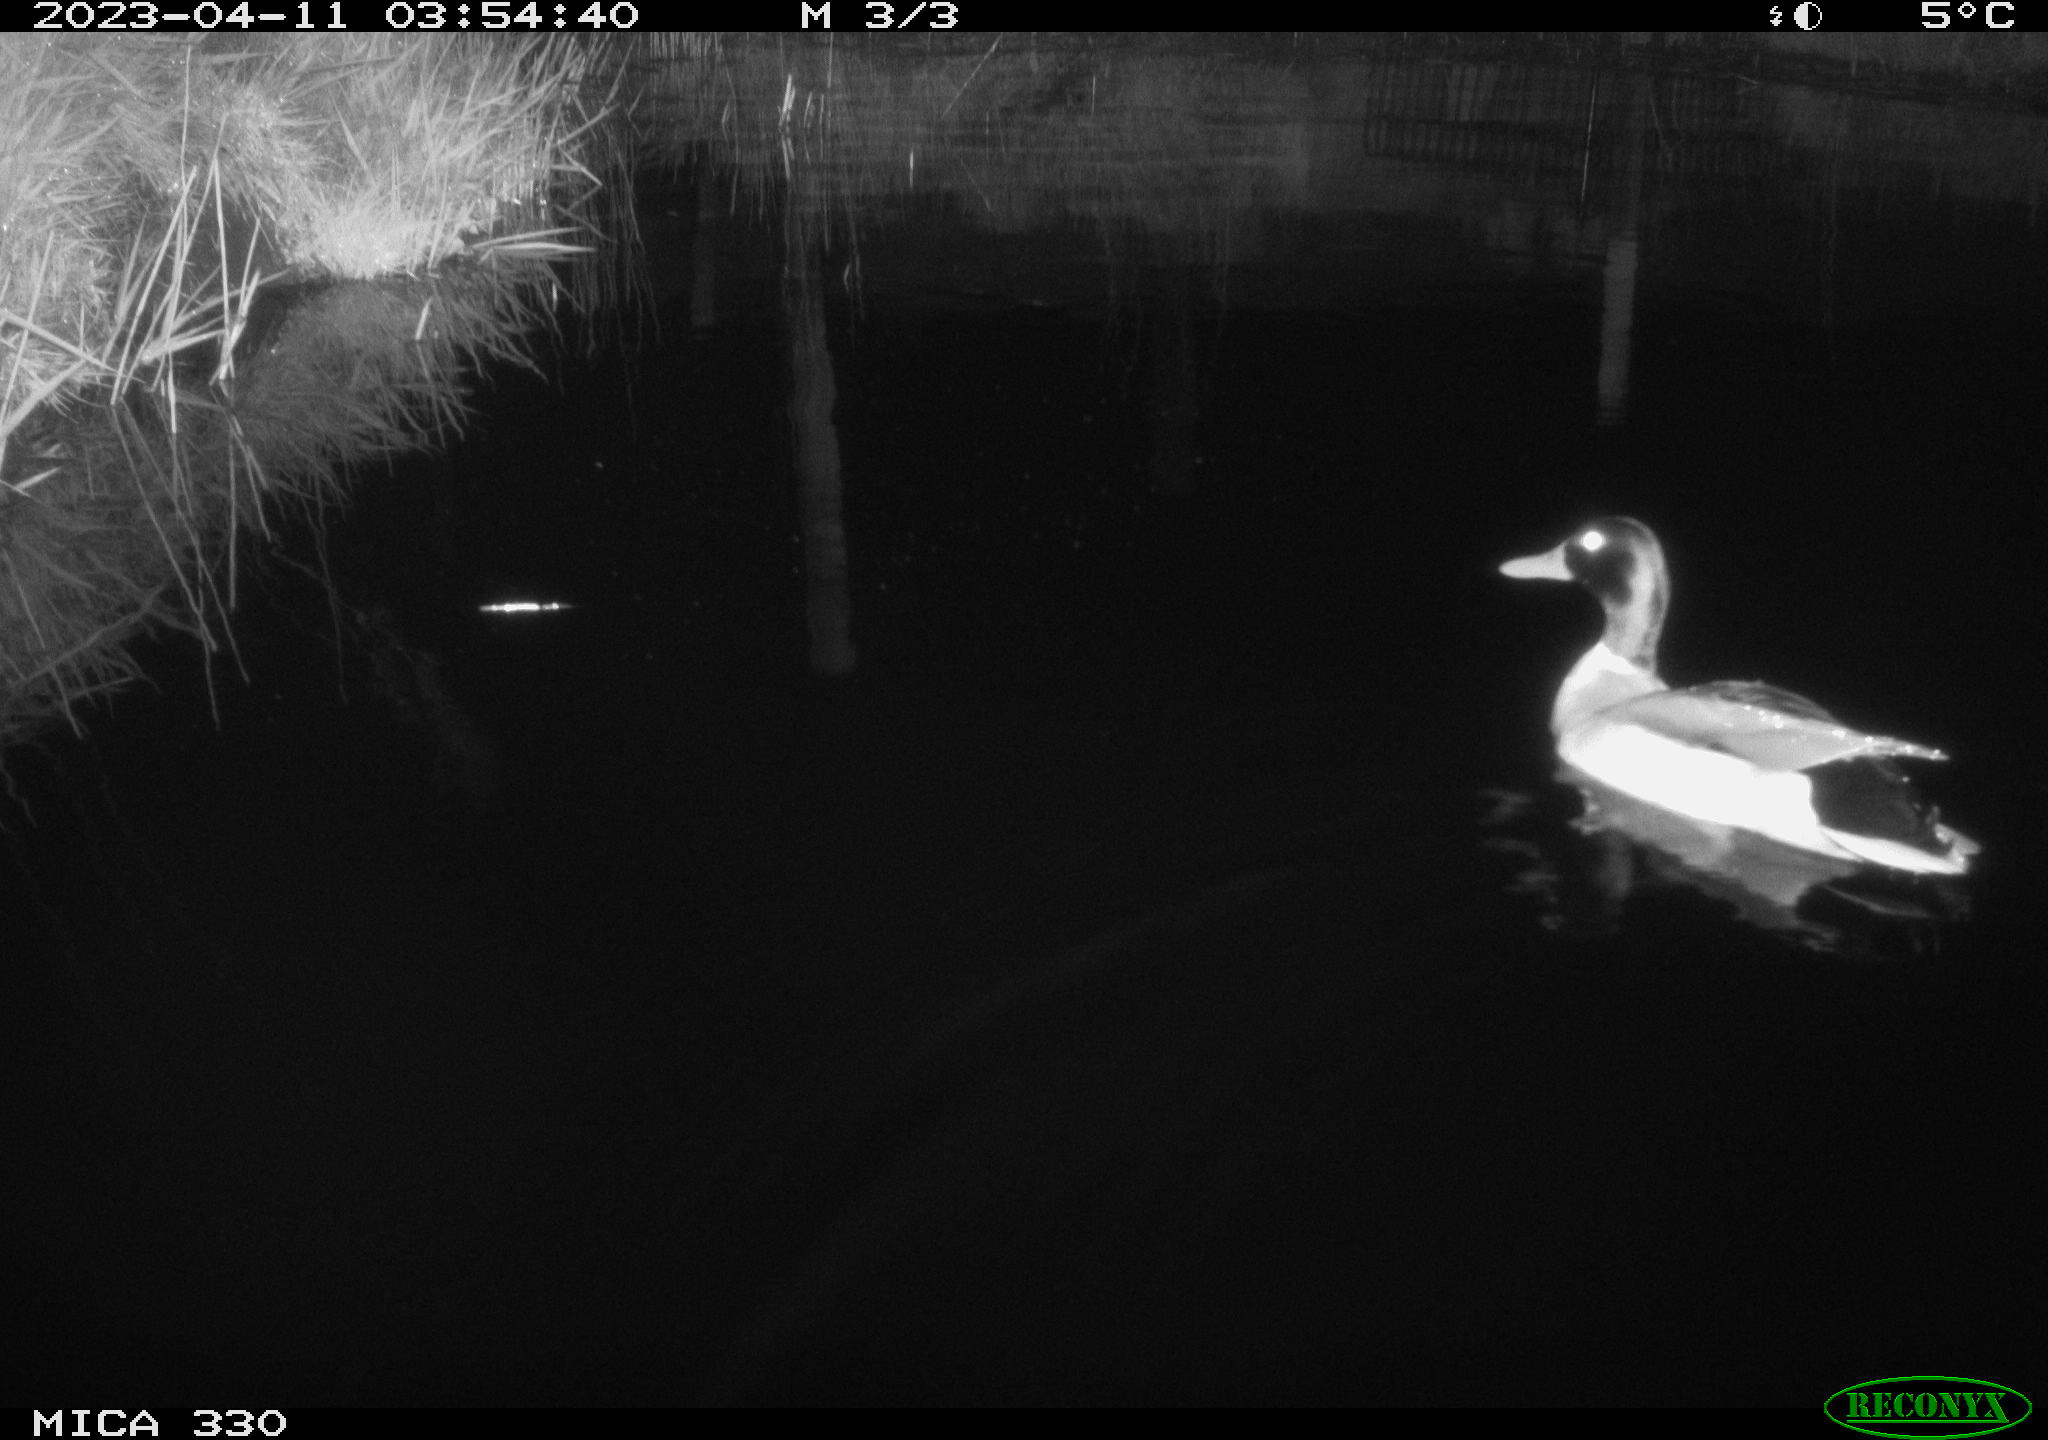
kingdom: Animalia
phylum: Chordata
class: Aves
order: Anseriformes
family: Anatidae
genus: Anas
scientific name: Anas
